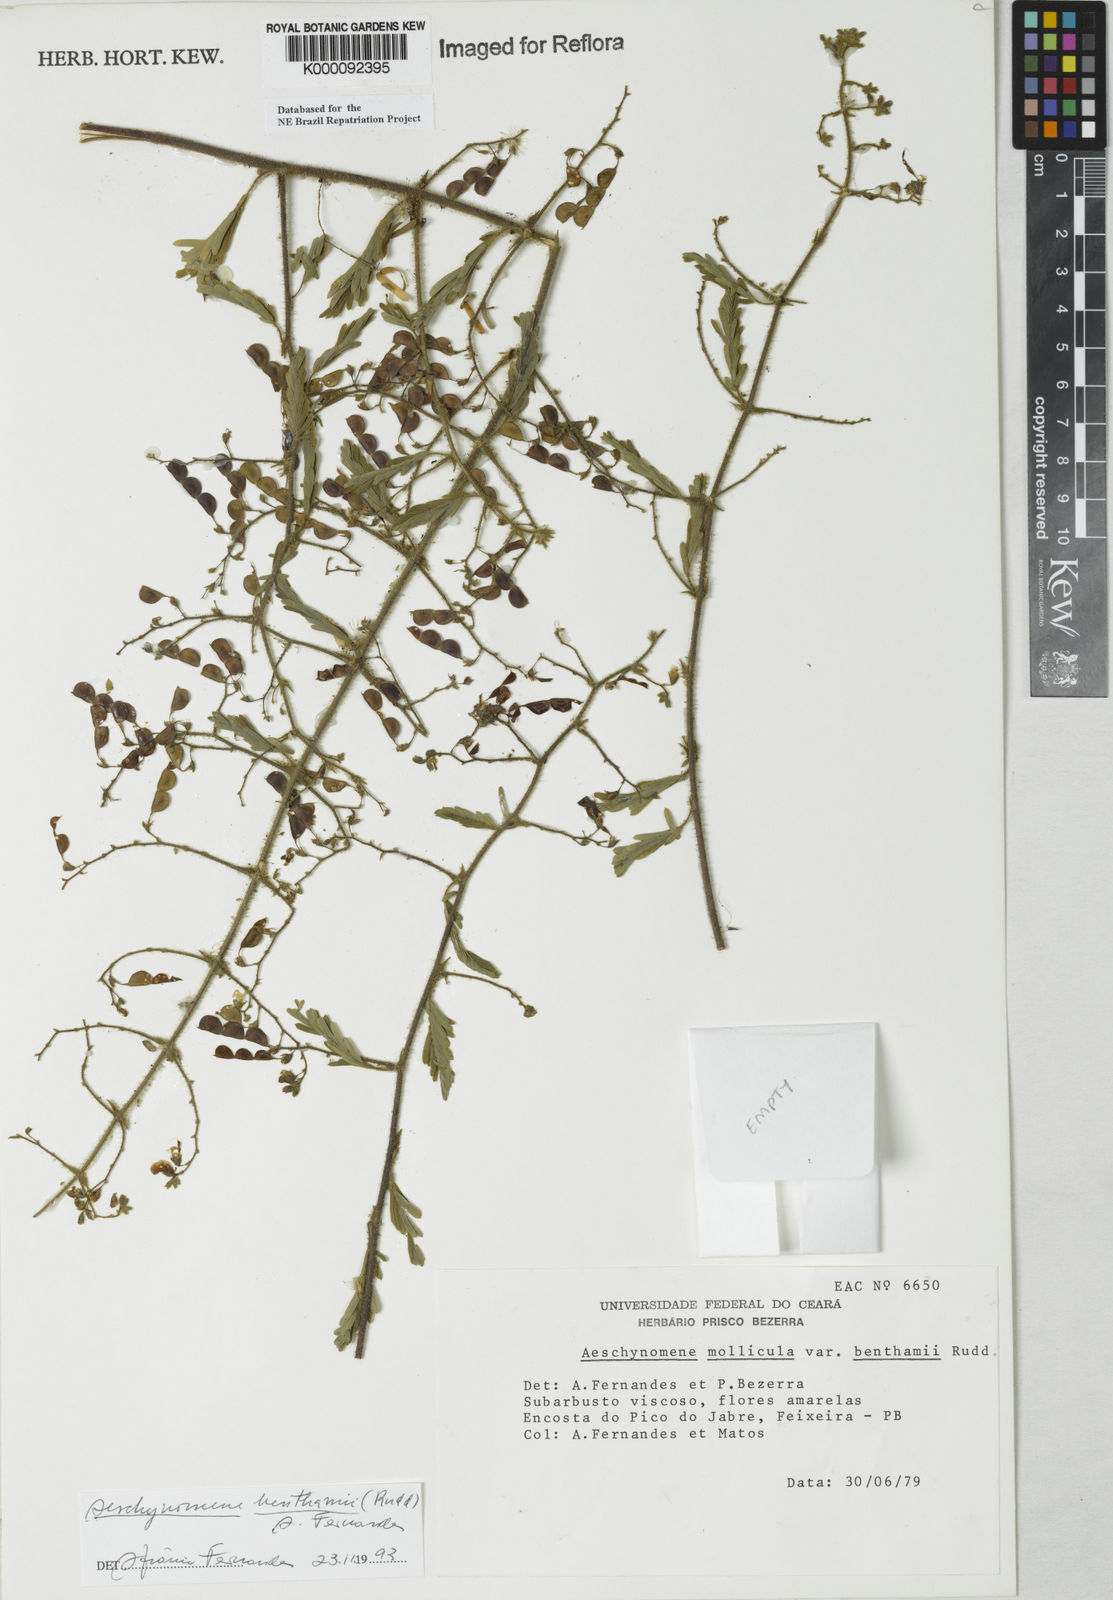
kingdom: Plantae
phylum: Tracheophyta
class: Magnoliopsida
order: Fabales
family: Fabaceae
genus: Aeschynomene
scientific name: Aeschynomene
